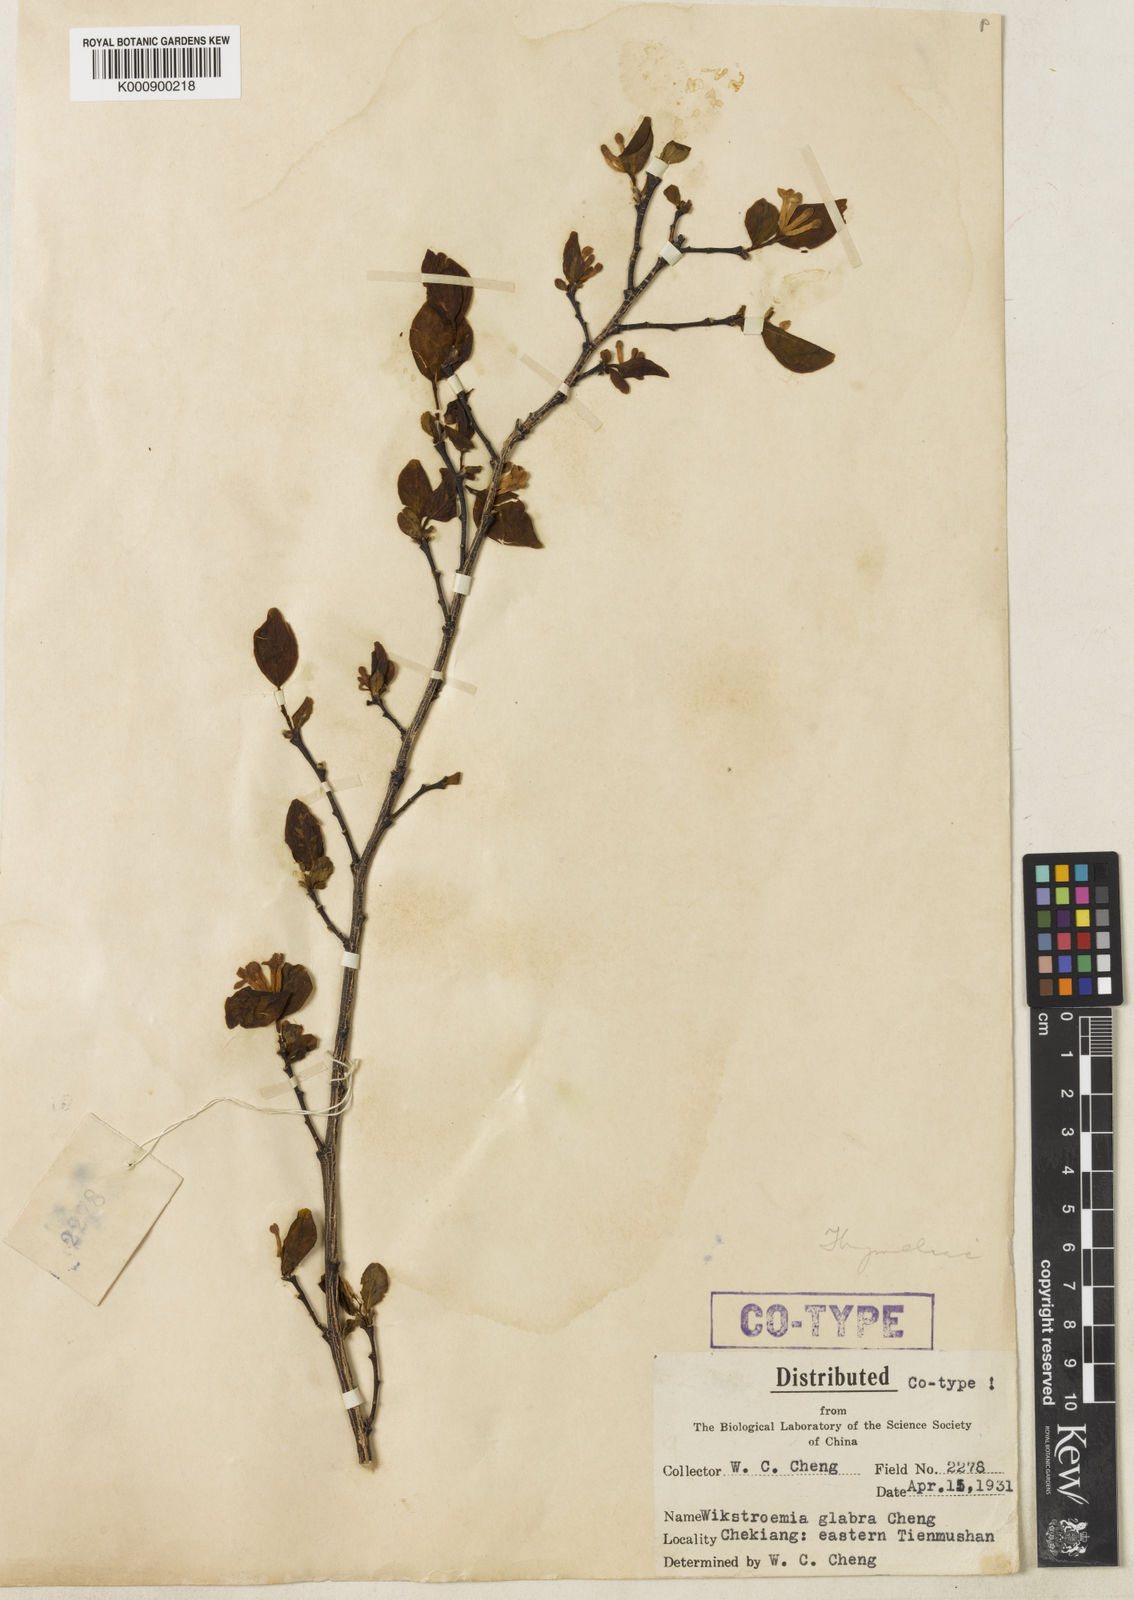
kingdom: Plantae
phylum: Tracheophyta
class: Magnoliopsida
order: Malvales
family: Thymelaeaceae
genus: Wikstroemia
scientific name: Wikstroemia glabra
